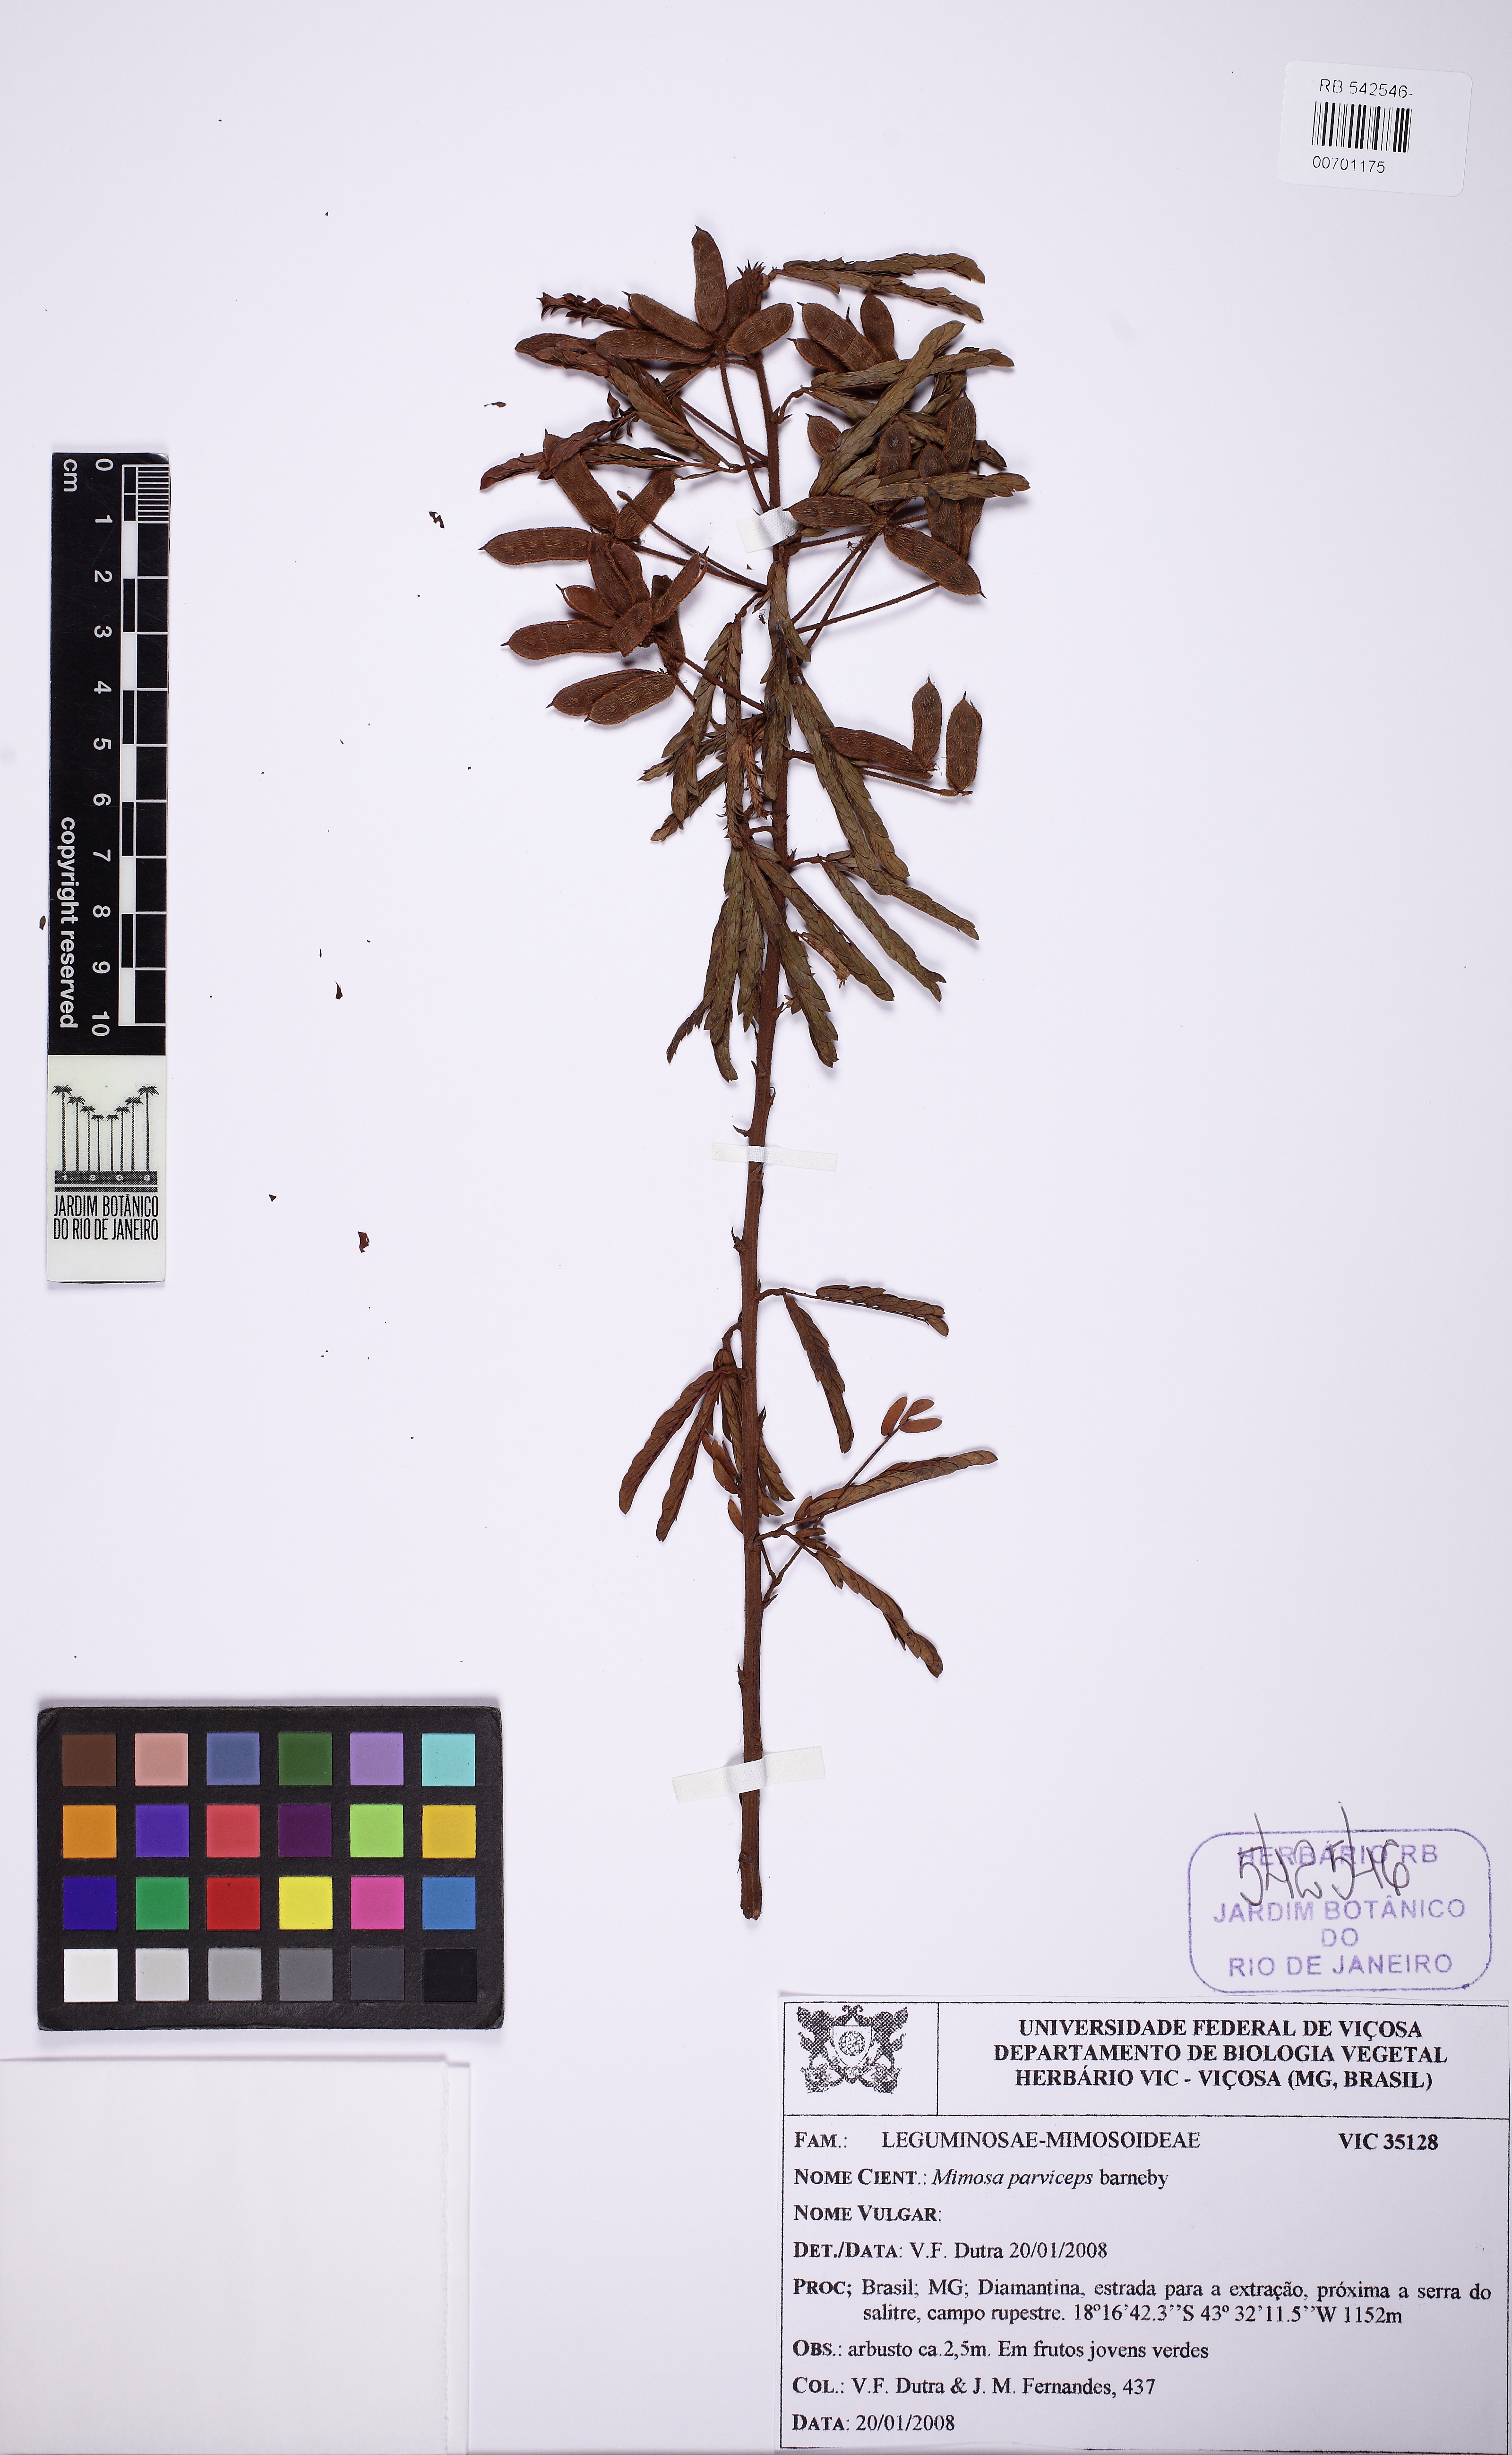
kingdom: Plantae
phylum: Tracheophyta
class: Magnoliopsida
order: Fabales
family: Fabaceae
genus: Mimosa
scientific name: Mimosa parviceps
